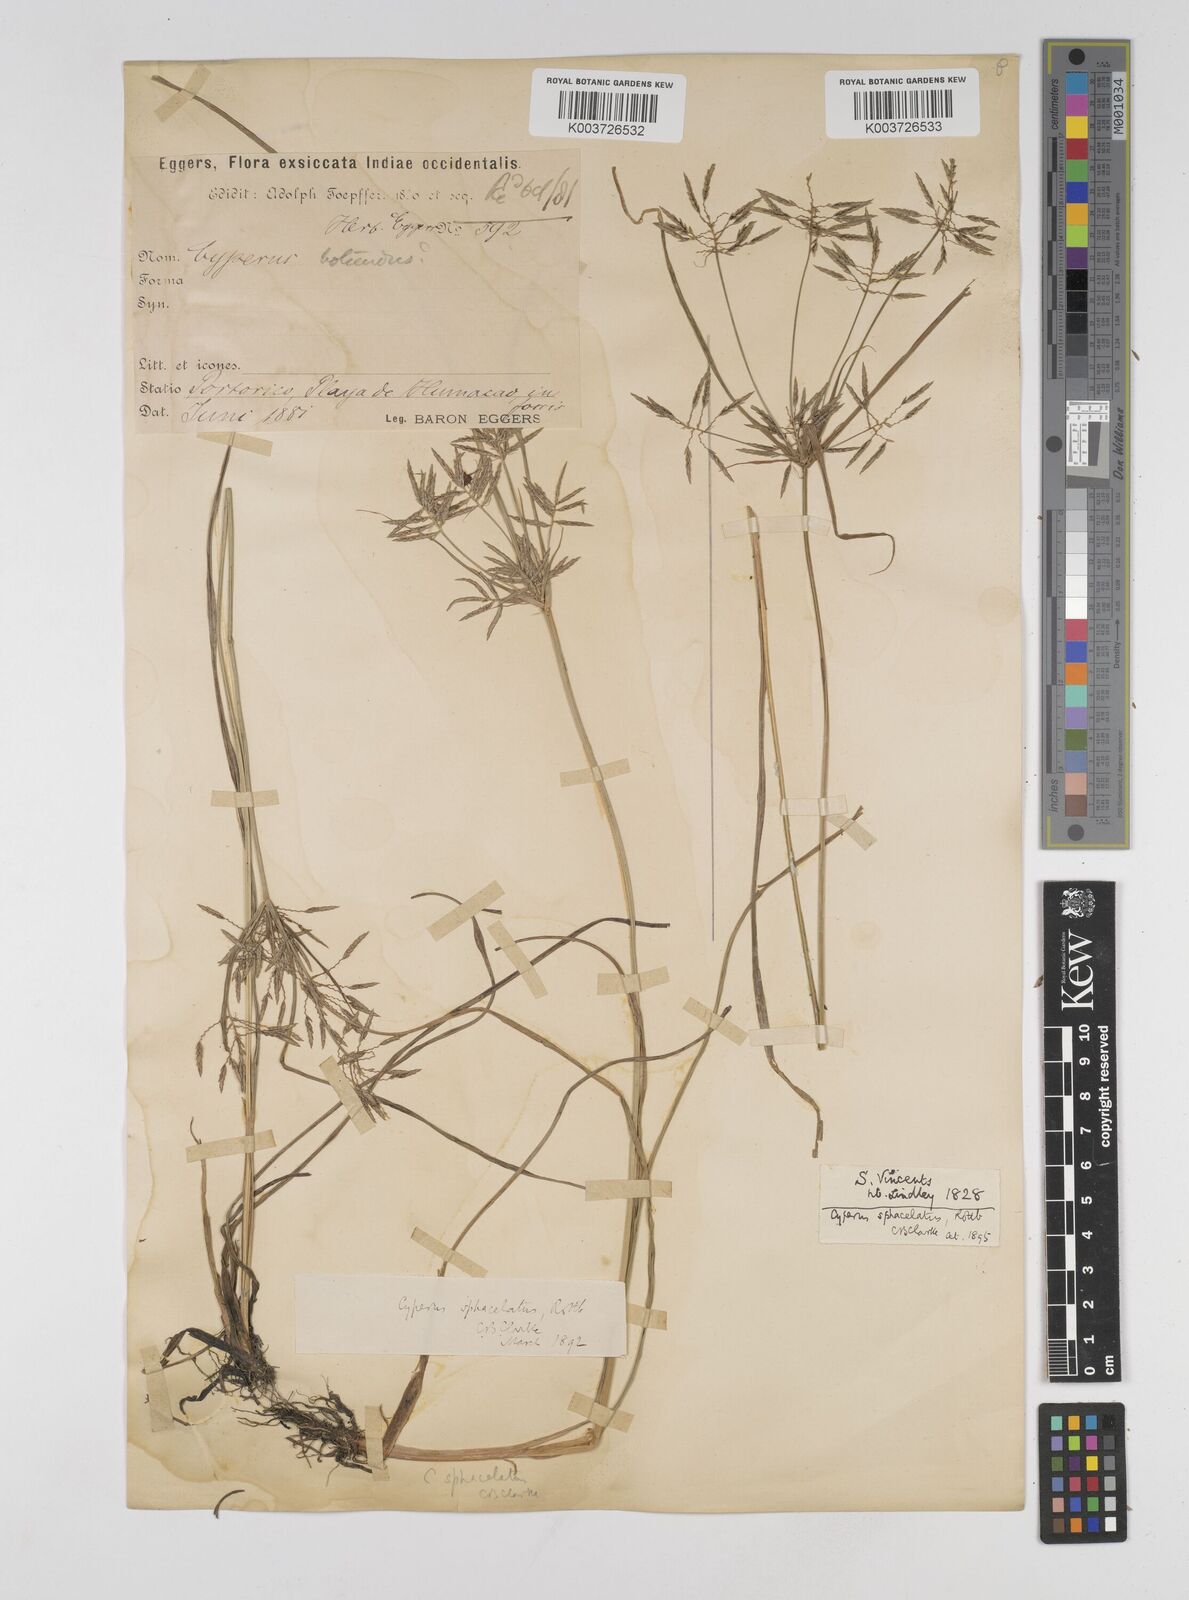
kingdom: Plantae
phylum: Tracheophyta
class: Liliopsida
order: Poales
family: Cyperaceae
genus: Cyperus
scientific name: Cyperus sphacelatus
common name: Roadside flatsedge
